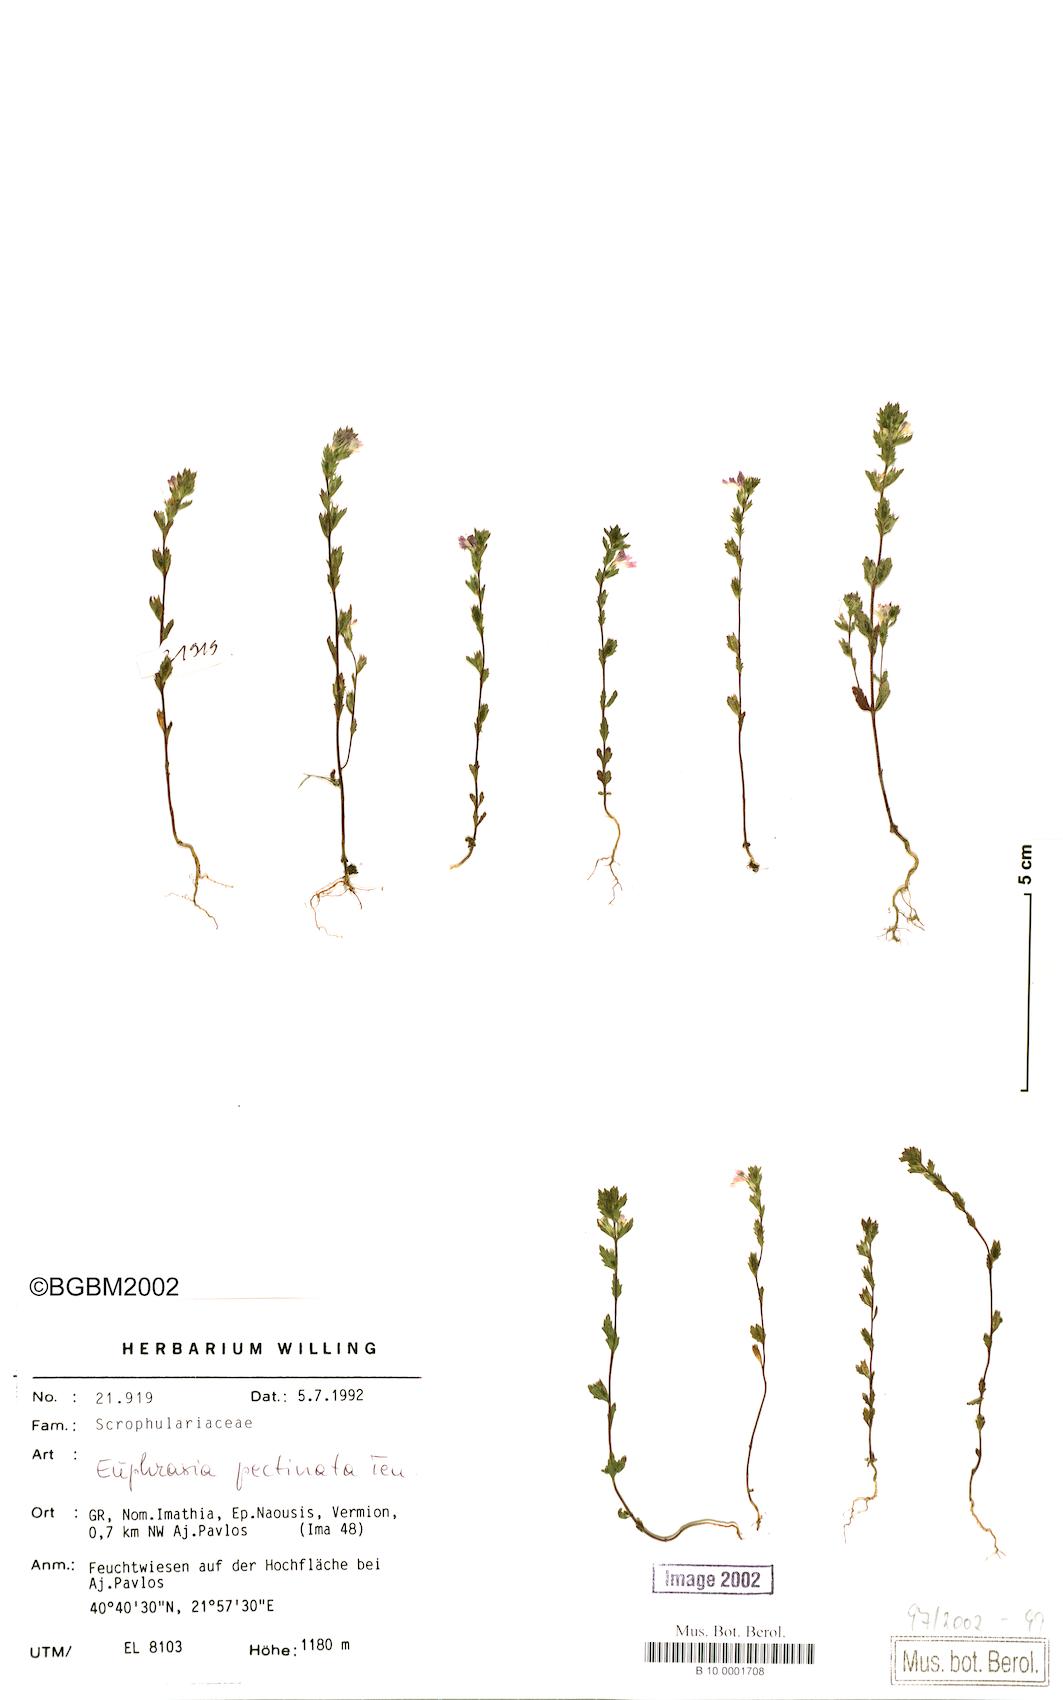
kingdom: Plantae
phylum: Tracheophyta
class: Magnoliopsida
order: Lamiales
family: Orobanchaceae
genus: Euphrasia
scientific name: Euphrasia pectinata
